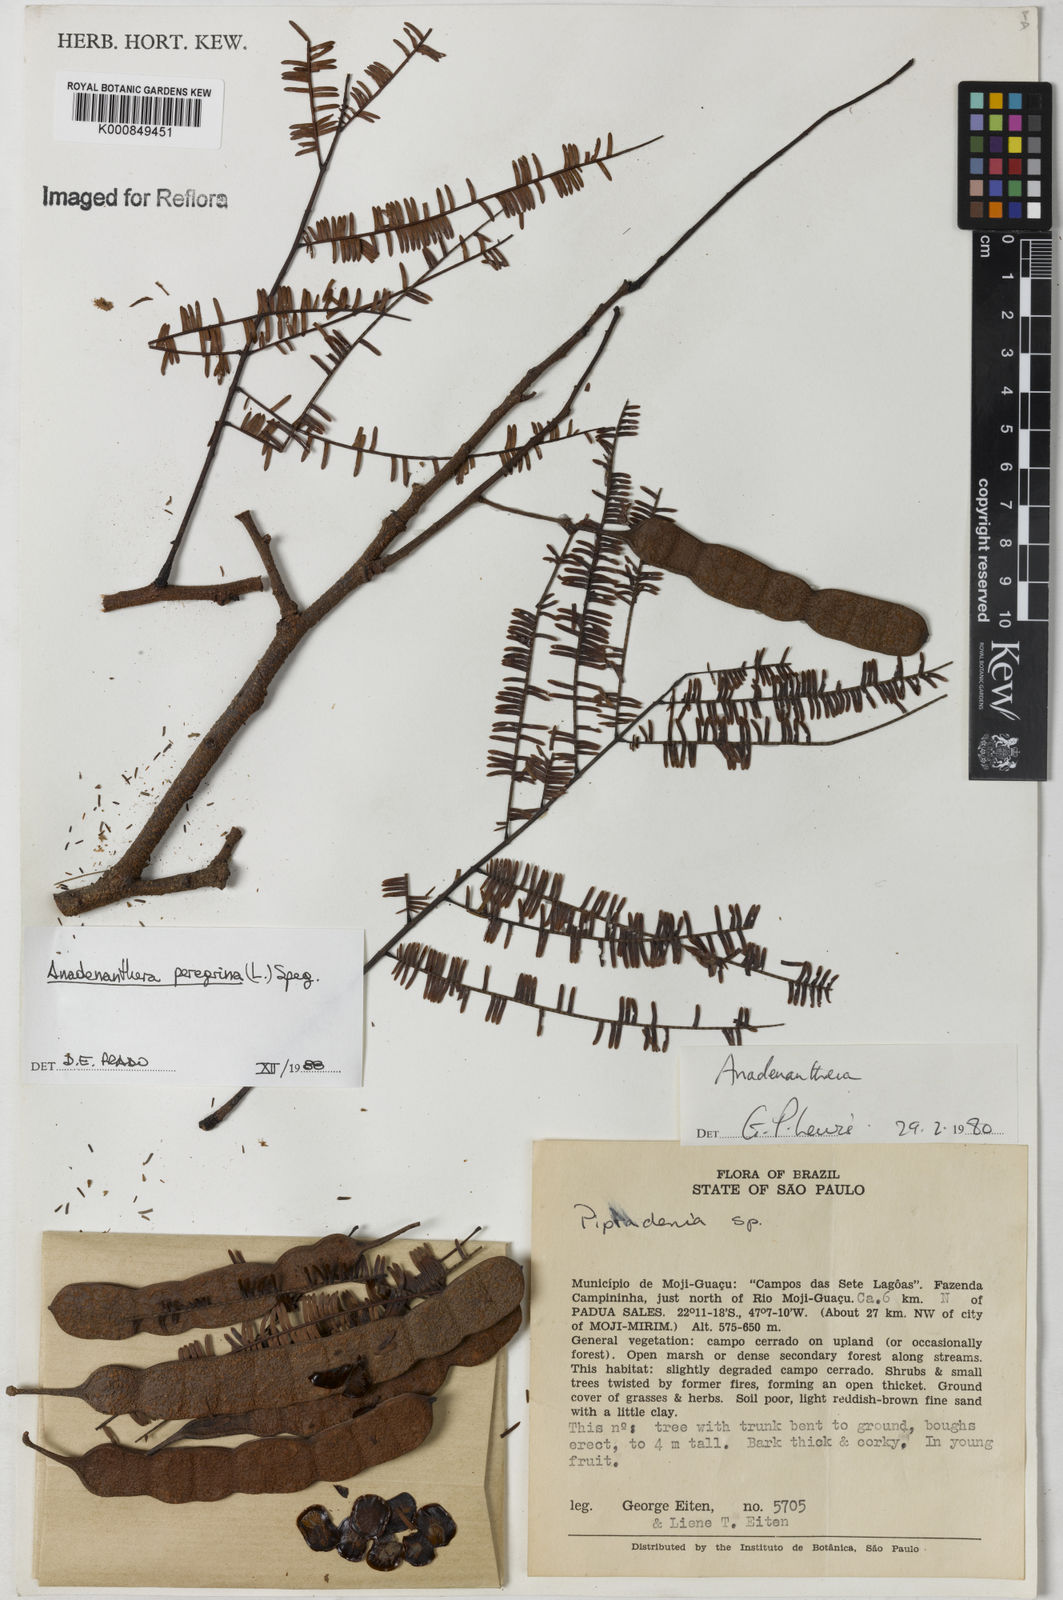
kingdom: Plantae
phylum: Tracheophyta
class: Magnoliopsida
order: Fabales
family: Fabaceae
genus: Anadenanthera
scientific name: Anadenanthera peregrina
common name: Cohoba
